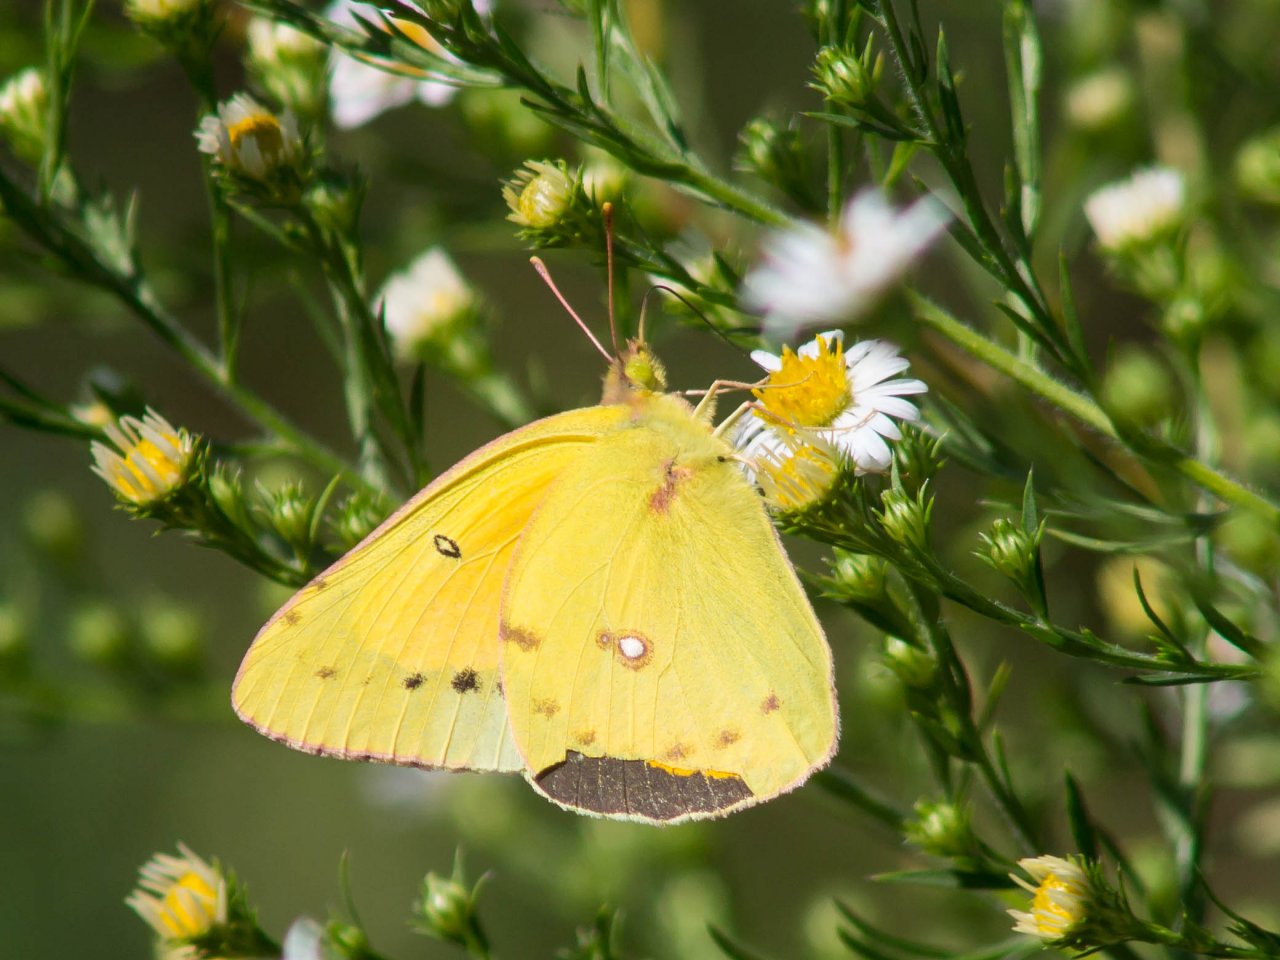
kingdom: Animalia
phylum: Arthropoda
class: Insecta
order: Lepidoptera
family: Pieridae
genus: Colias
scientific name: Colias eurytheme
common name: Orange Sulphur
